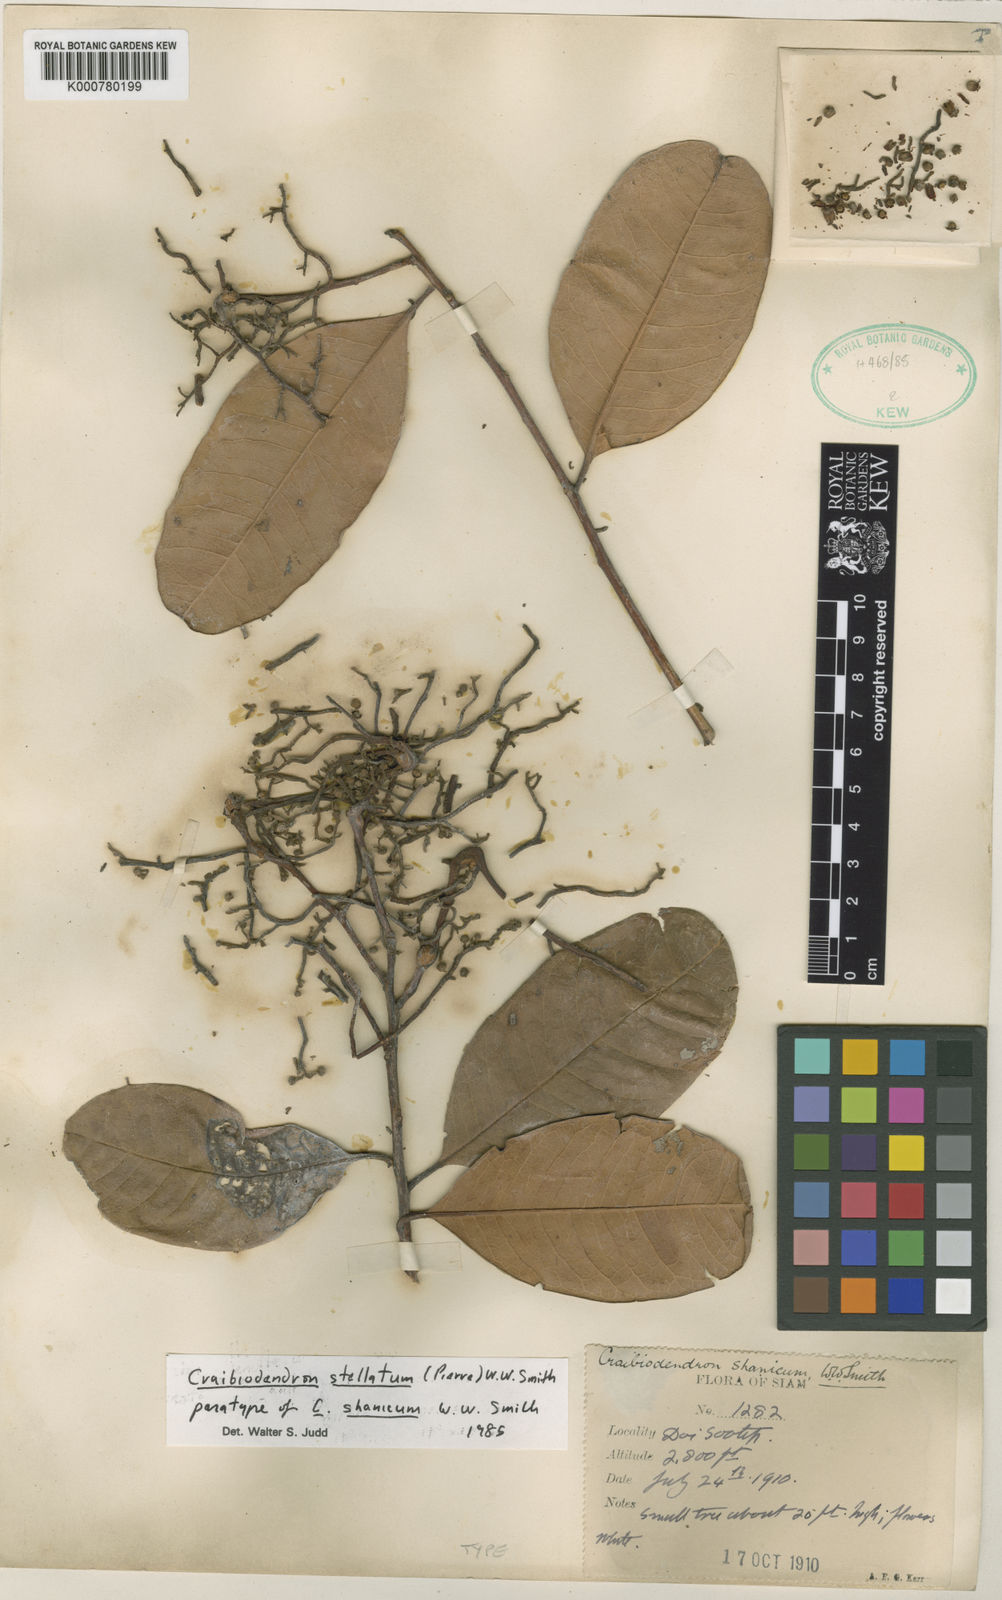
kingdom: Plantae
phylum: Tracheophyta
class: Magnoliopsida
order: Ericales
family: Ericaceae
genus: Craibiodendron
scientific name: Craibiodendron stellatum
